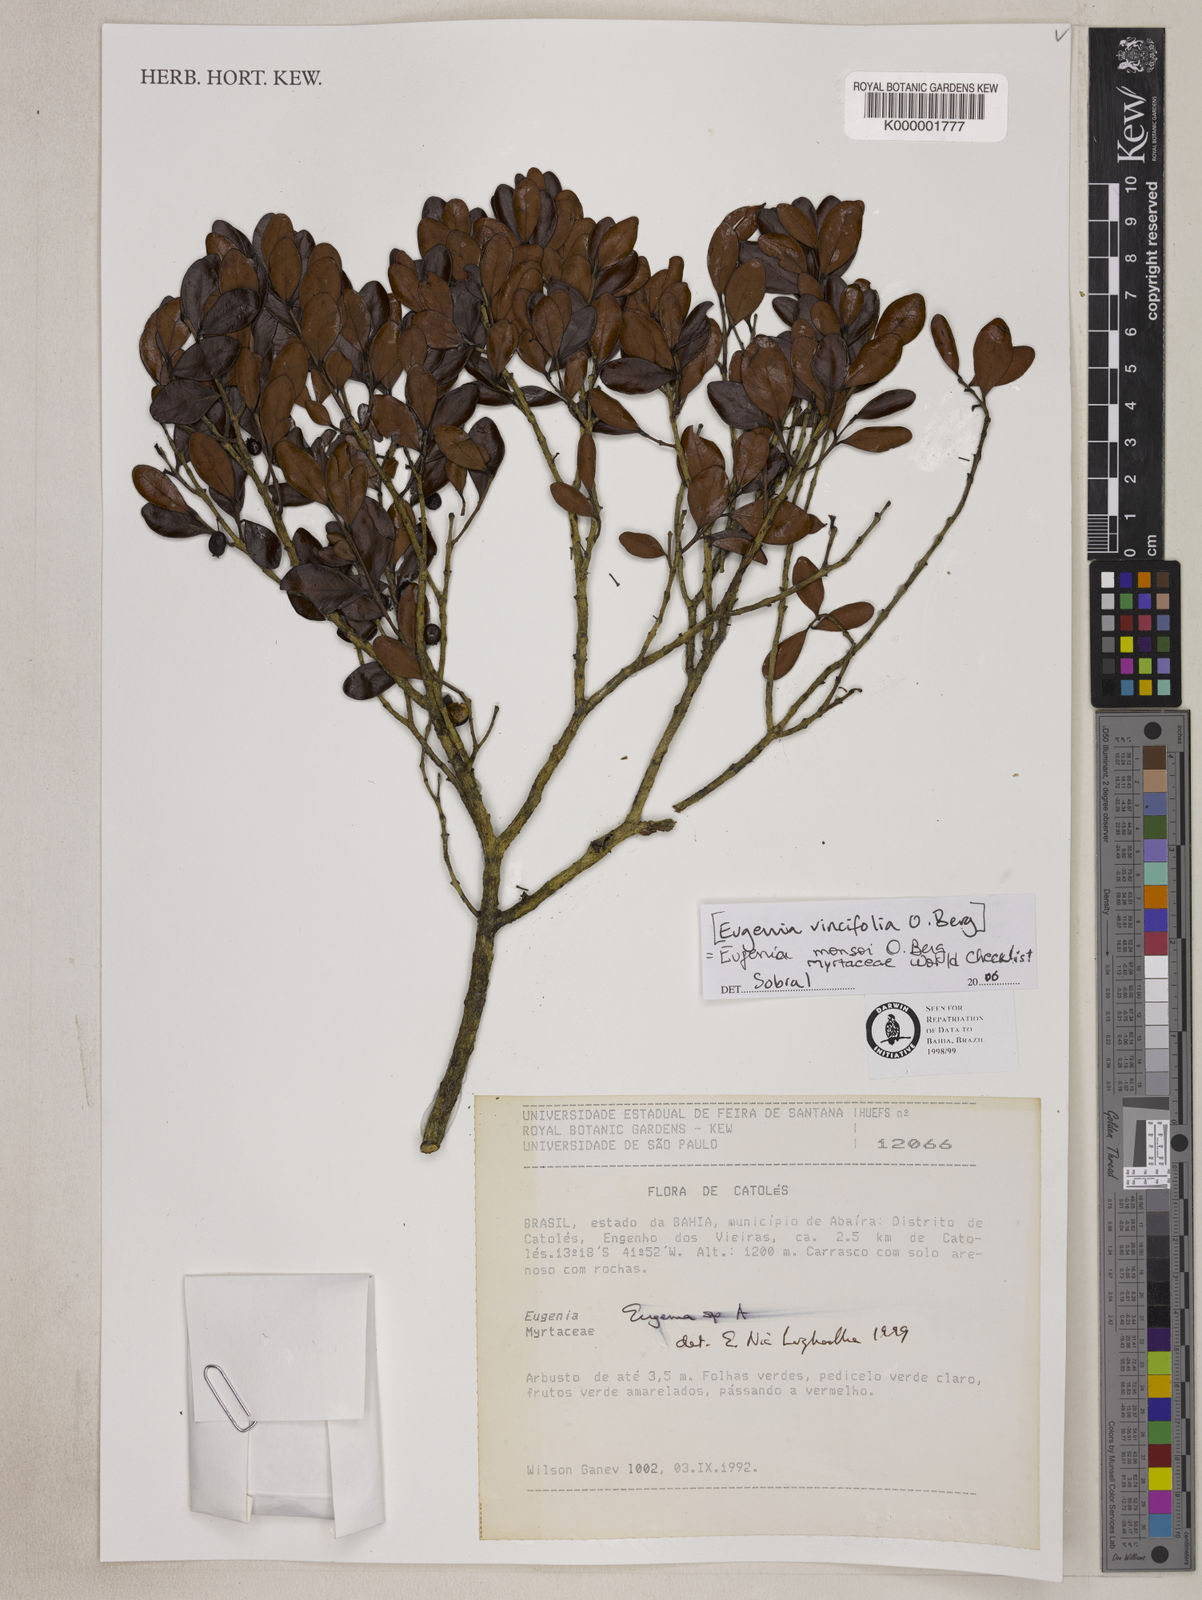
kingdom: Plantae
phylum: Tracheophyta
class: Magnoliopsida
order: Myrtales
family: Myrtaceae
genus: Eugenia
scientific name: Eugenia
